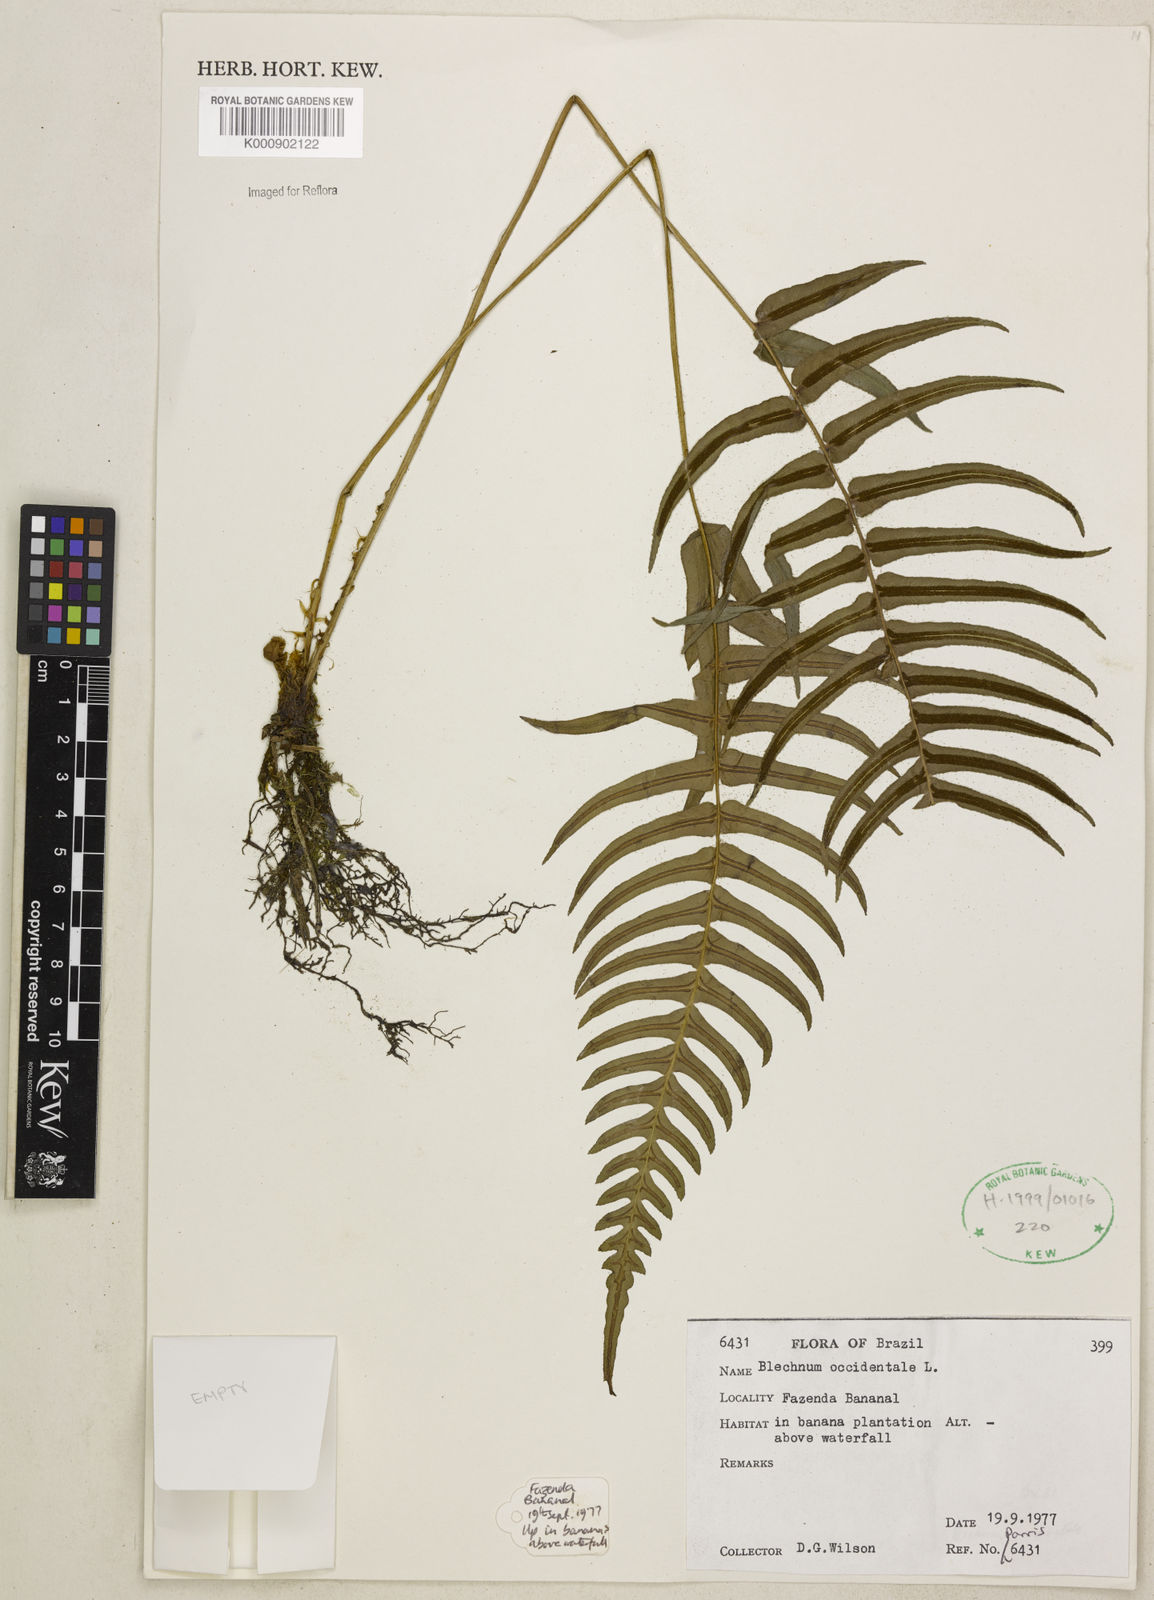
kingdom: Plantae
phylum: Tracheophyta
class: Polypodiopsida
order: Polypodiales
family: Blechnaceae
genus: Blechnum
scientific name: Blechnum occidentale
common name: Hammock fern
